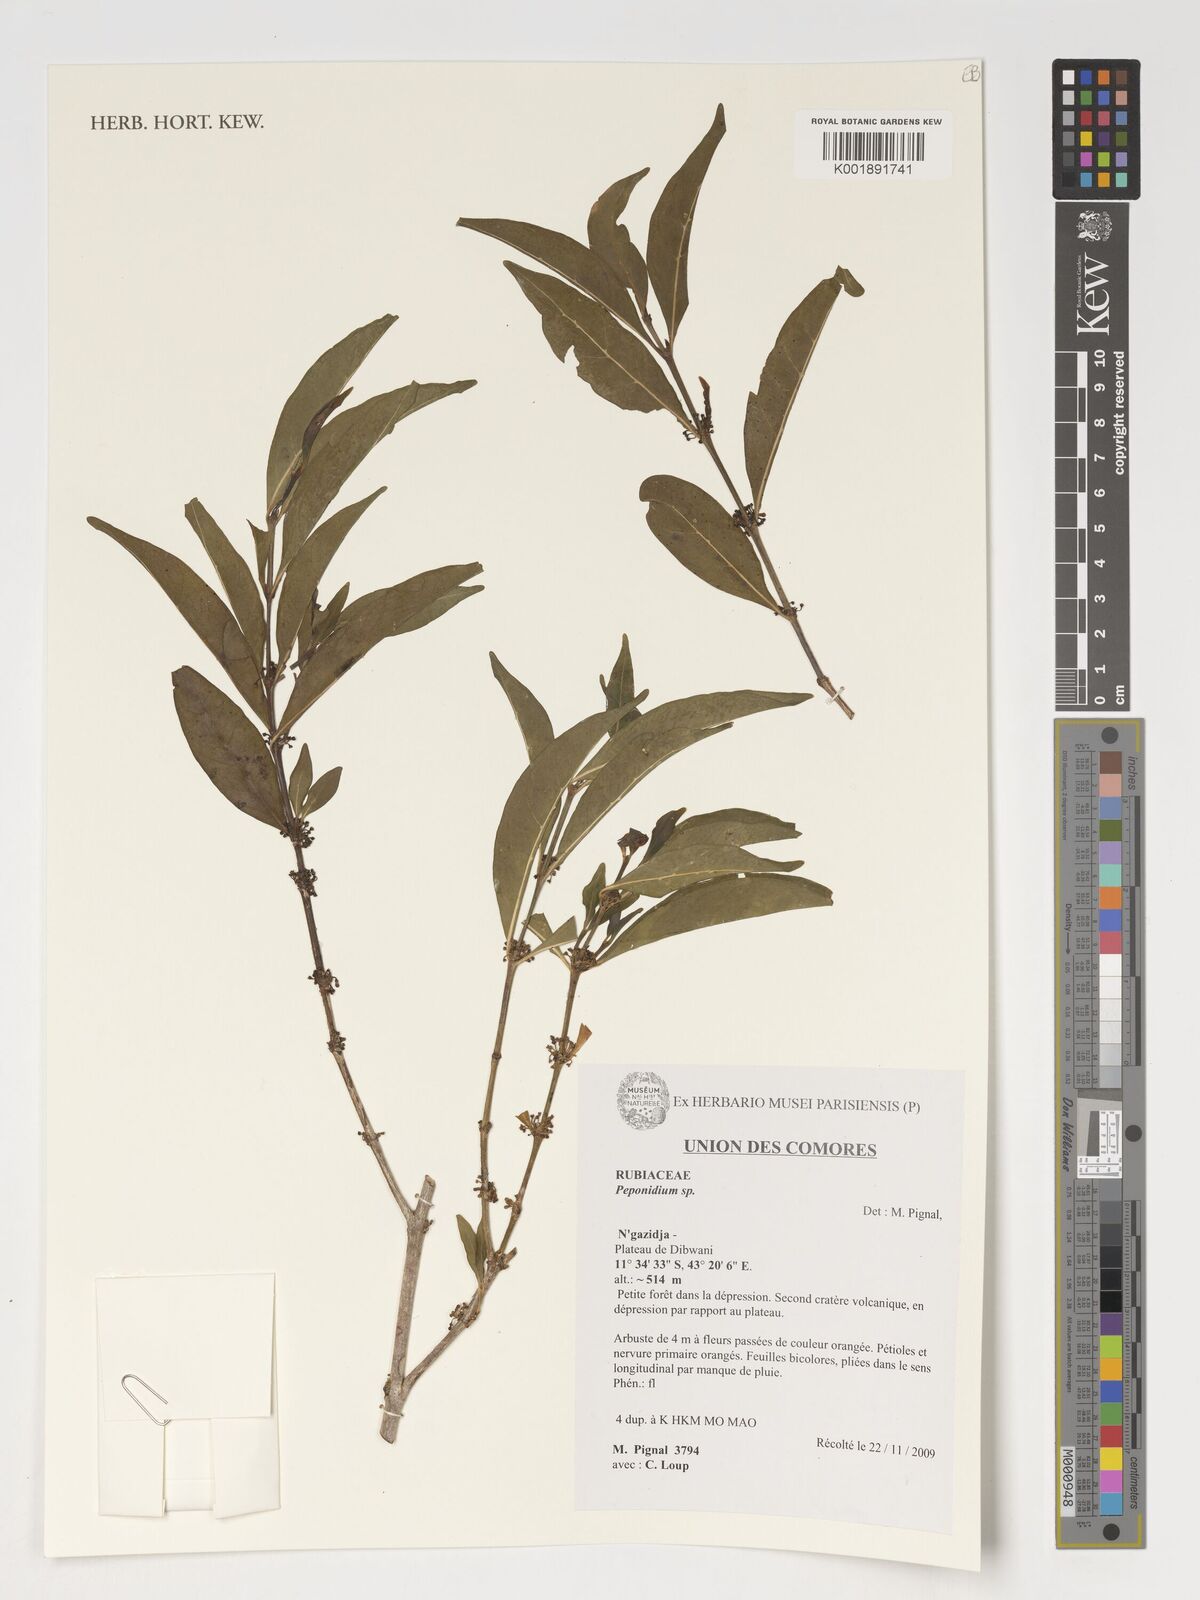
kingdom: Plantae
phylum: Tracheophyta
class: Magnoliopsida
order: Gentianales
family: Rubiaceae
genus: Peponidium
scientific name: Peponidium
